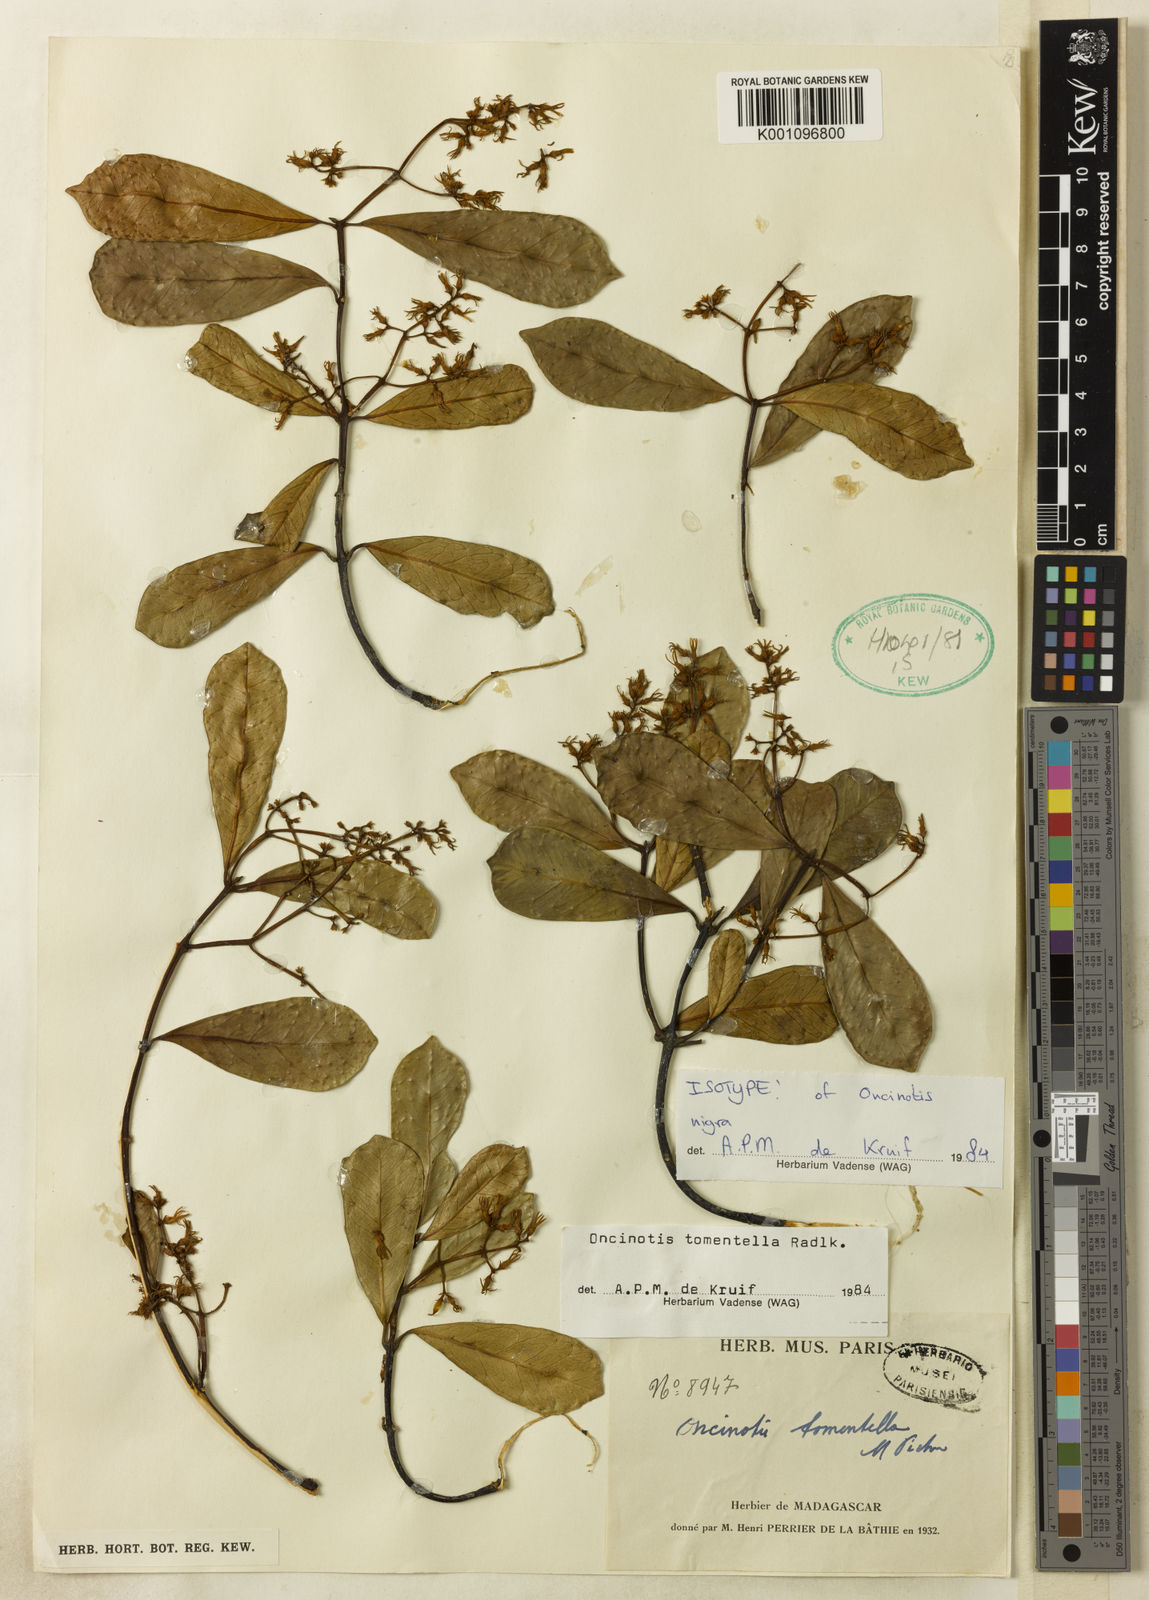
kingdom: Plantae
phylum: Tracheophyta
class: Magnoliopsida
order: Gentianales
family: Apocynaceae
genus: Oncinotis
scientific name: Oncinotis tomentella
